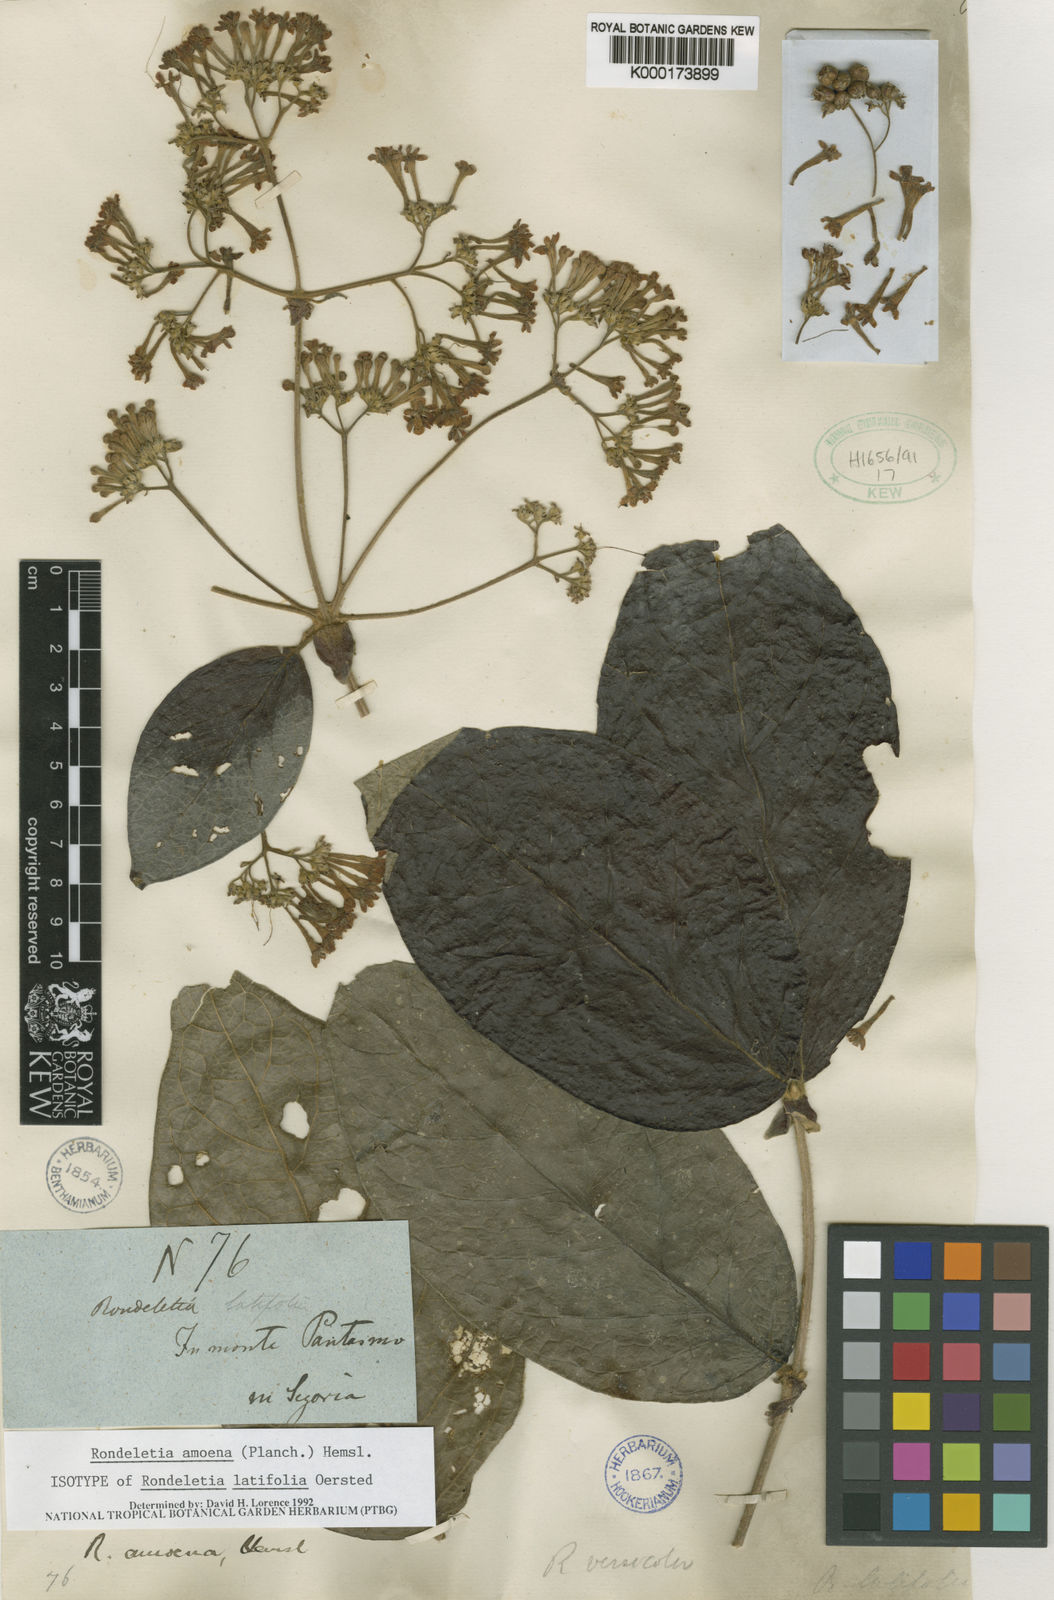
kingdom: Plantae
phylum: Tracheophyta
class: Magnoliopsida
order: Gentianales
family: Rubiaceae
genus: Rogiera
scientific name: Rogiera amoena
